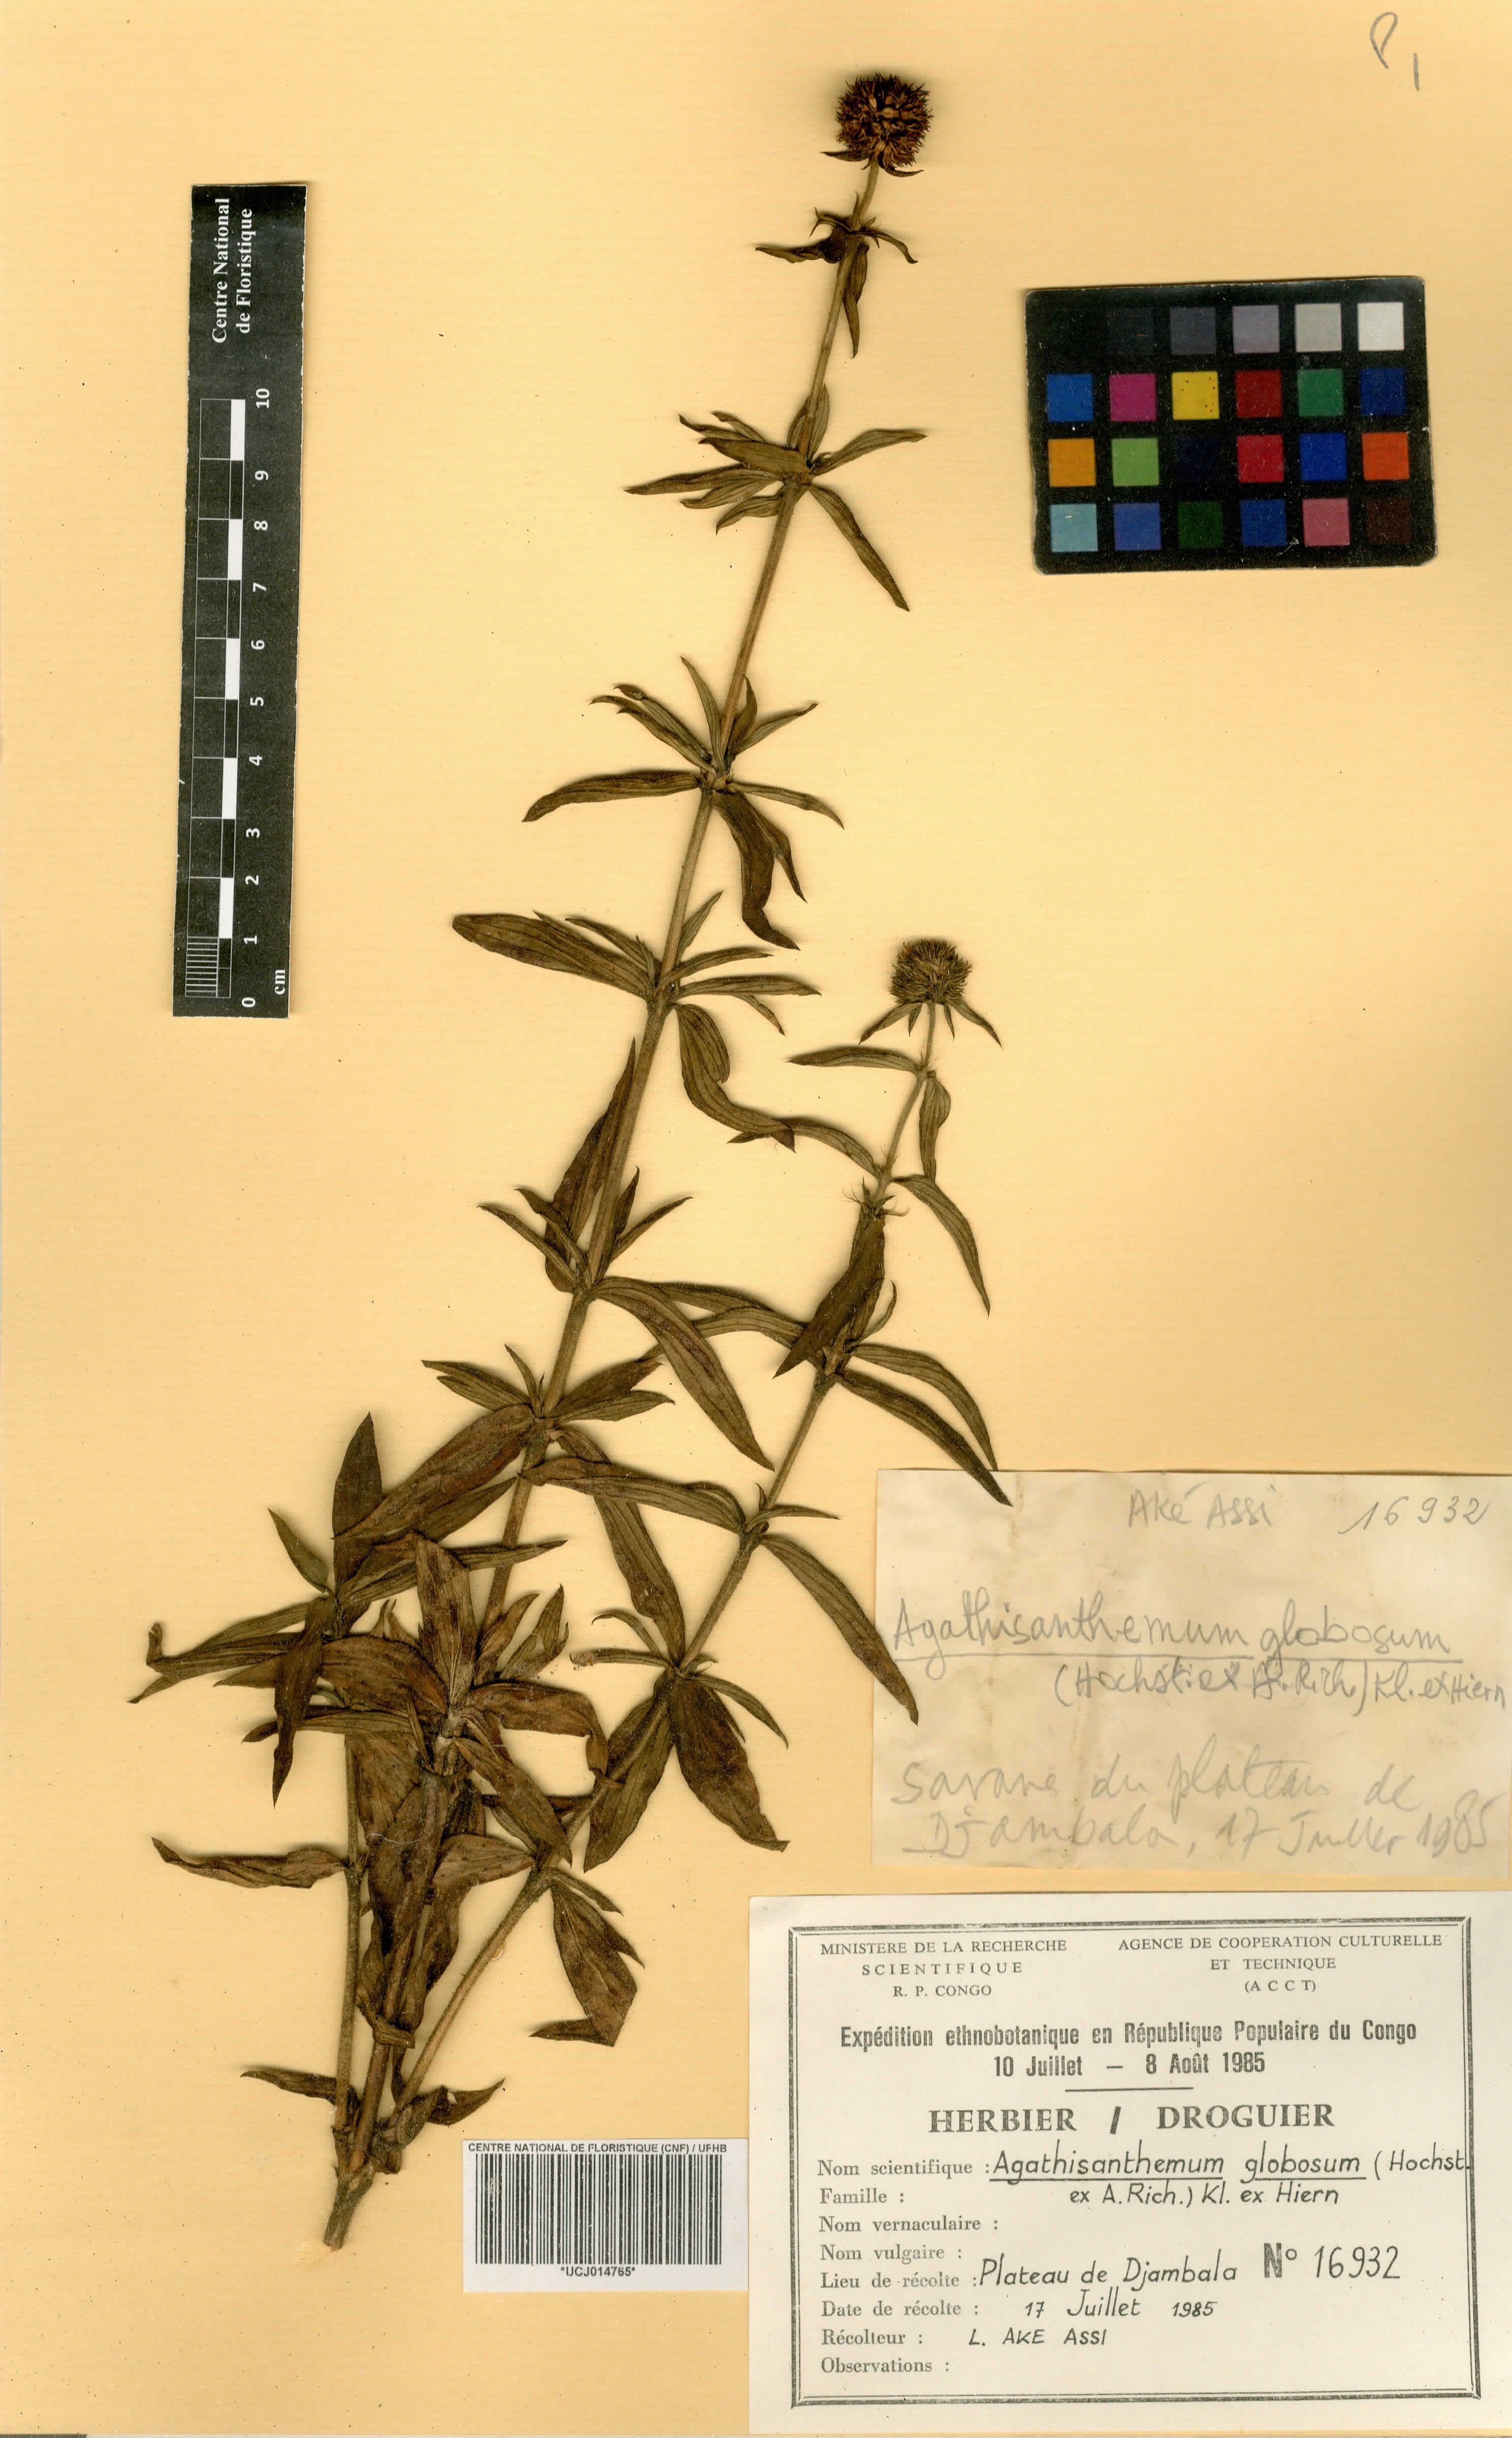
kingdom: Plantae
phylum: Tracheophyta
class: Magnoliopsida
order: Gentianales
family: Rubiaceae
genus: Agathisanthemum
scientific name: Agathisanthemum globosum
